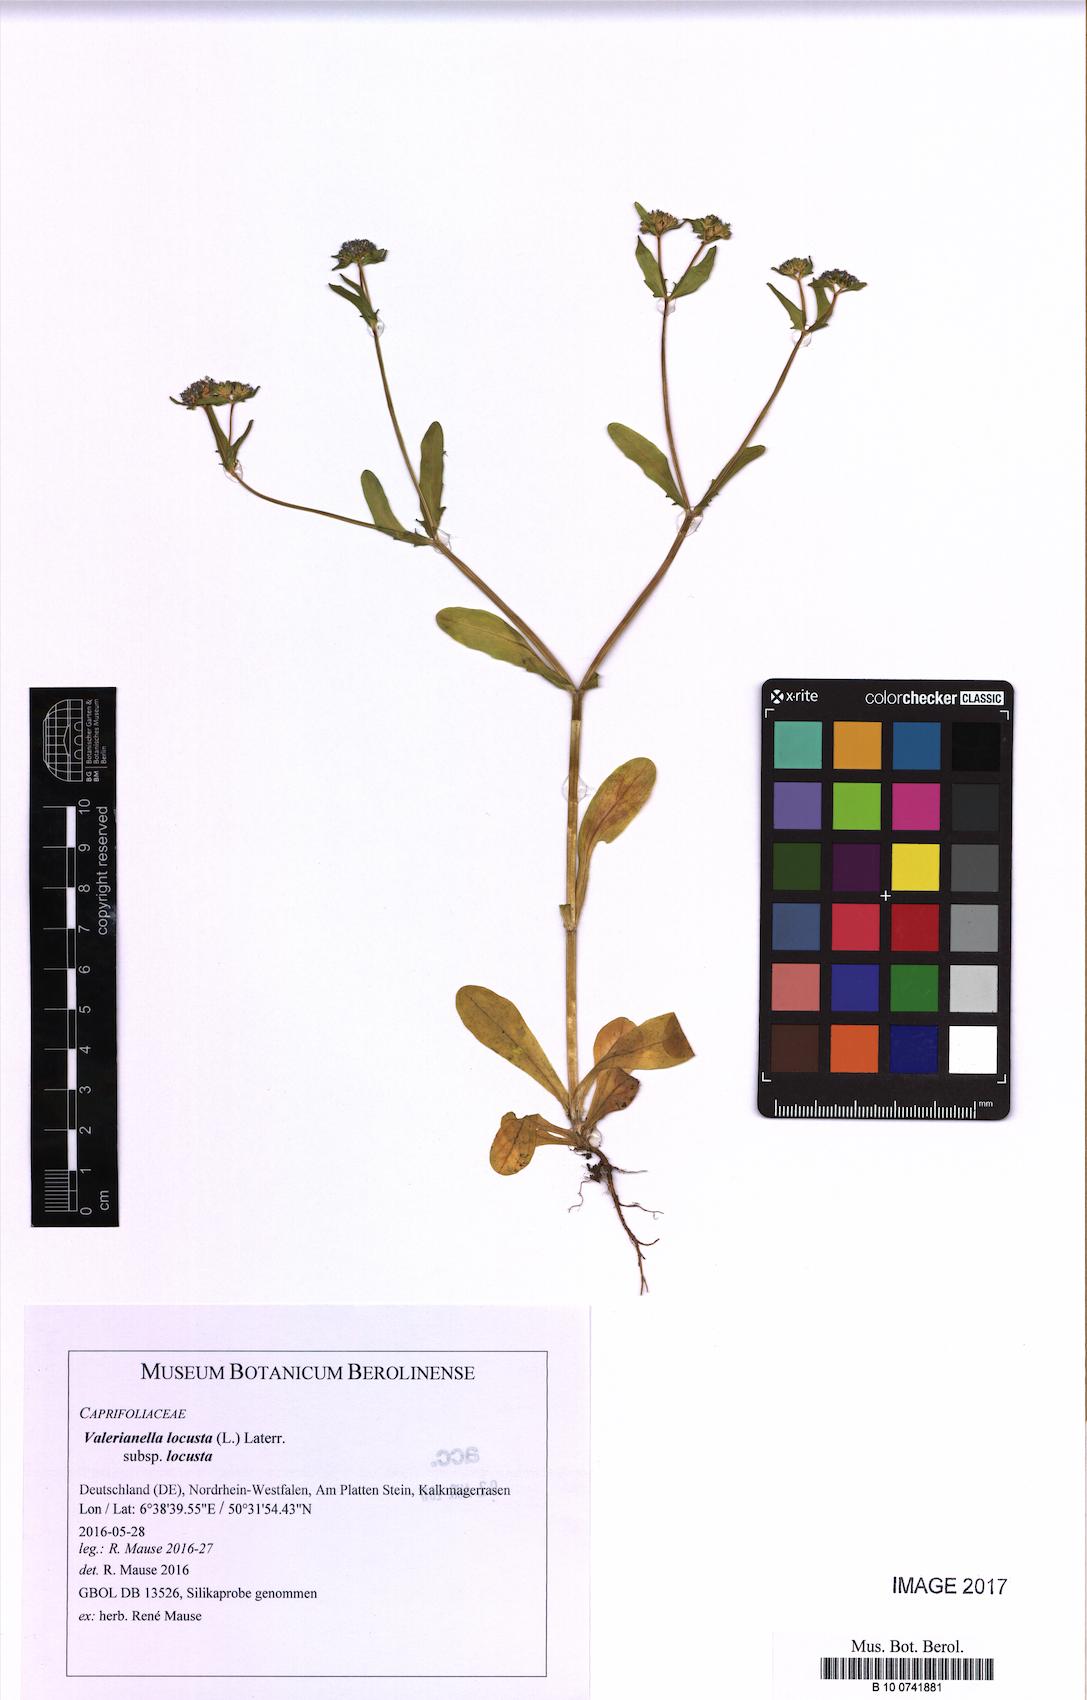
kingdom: Plantae
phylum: Tracheophyta
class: Magnoliopsida
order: Dipsacales
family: Caprifoliaceae
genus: Valerianella
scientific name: Valerianella locusta
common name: Common cornsalad
